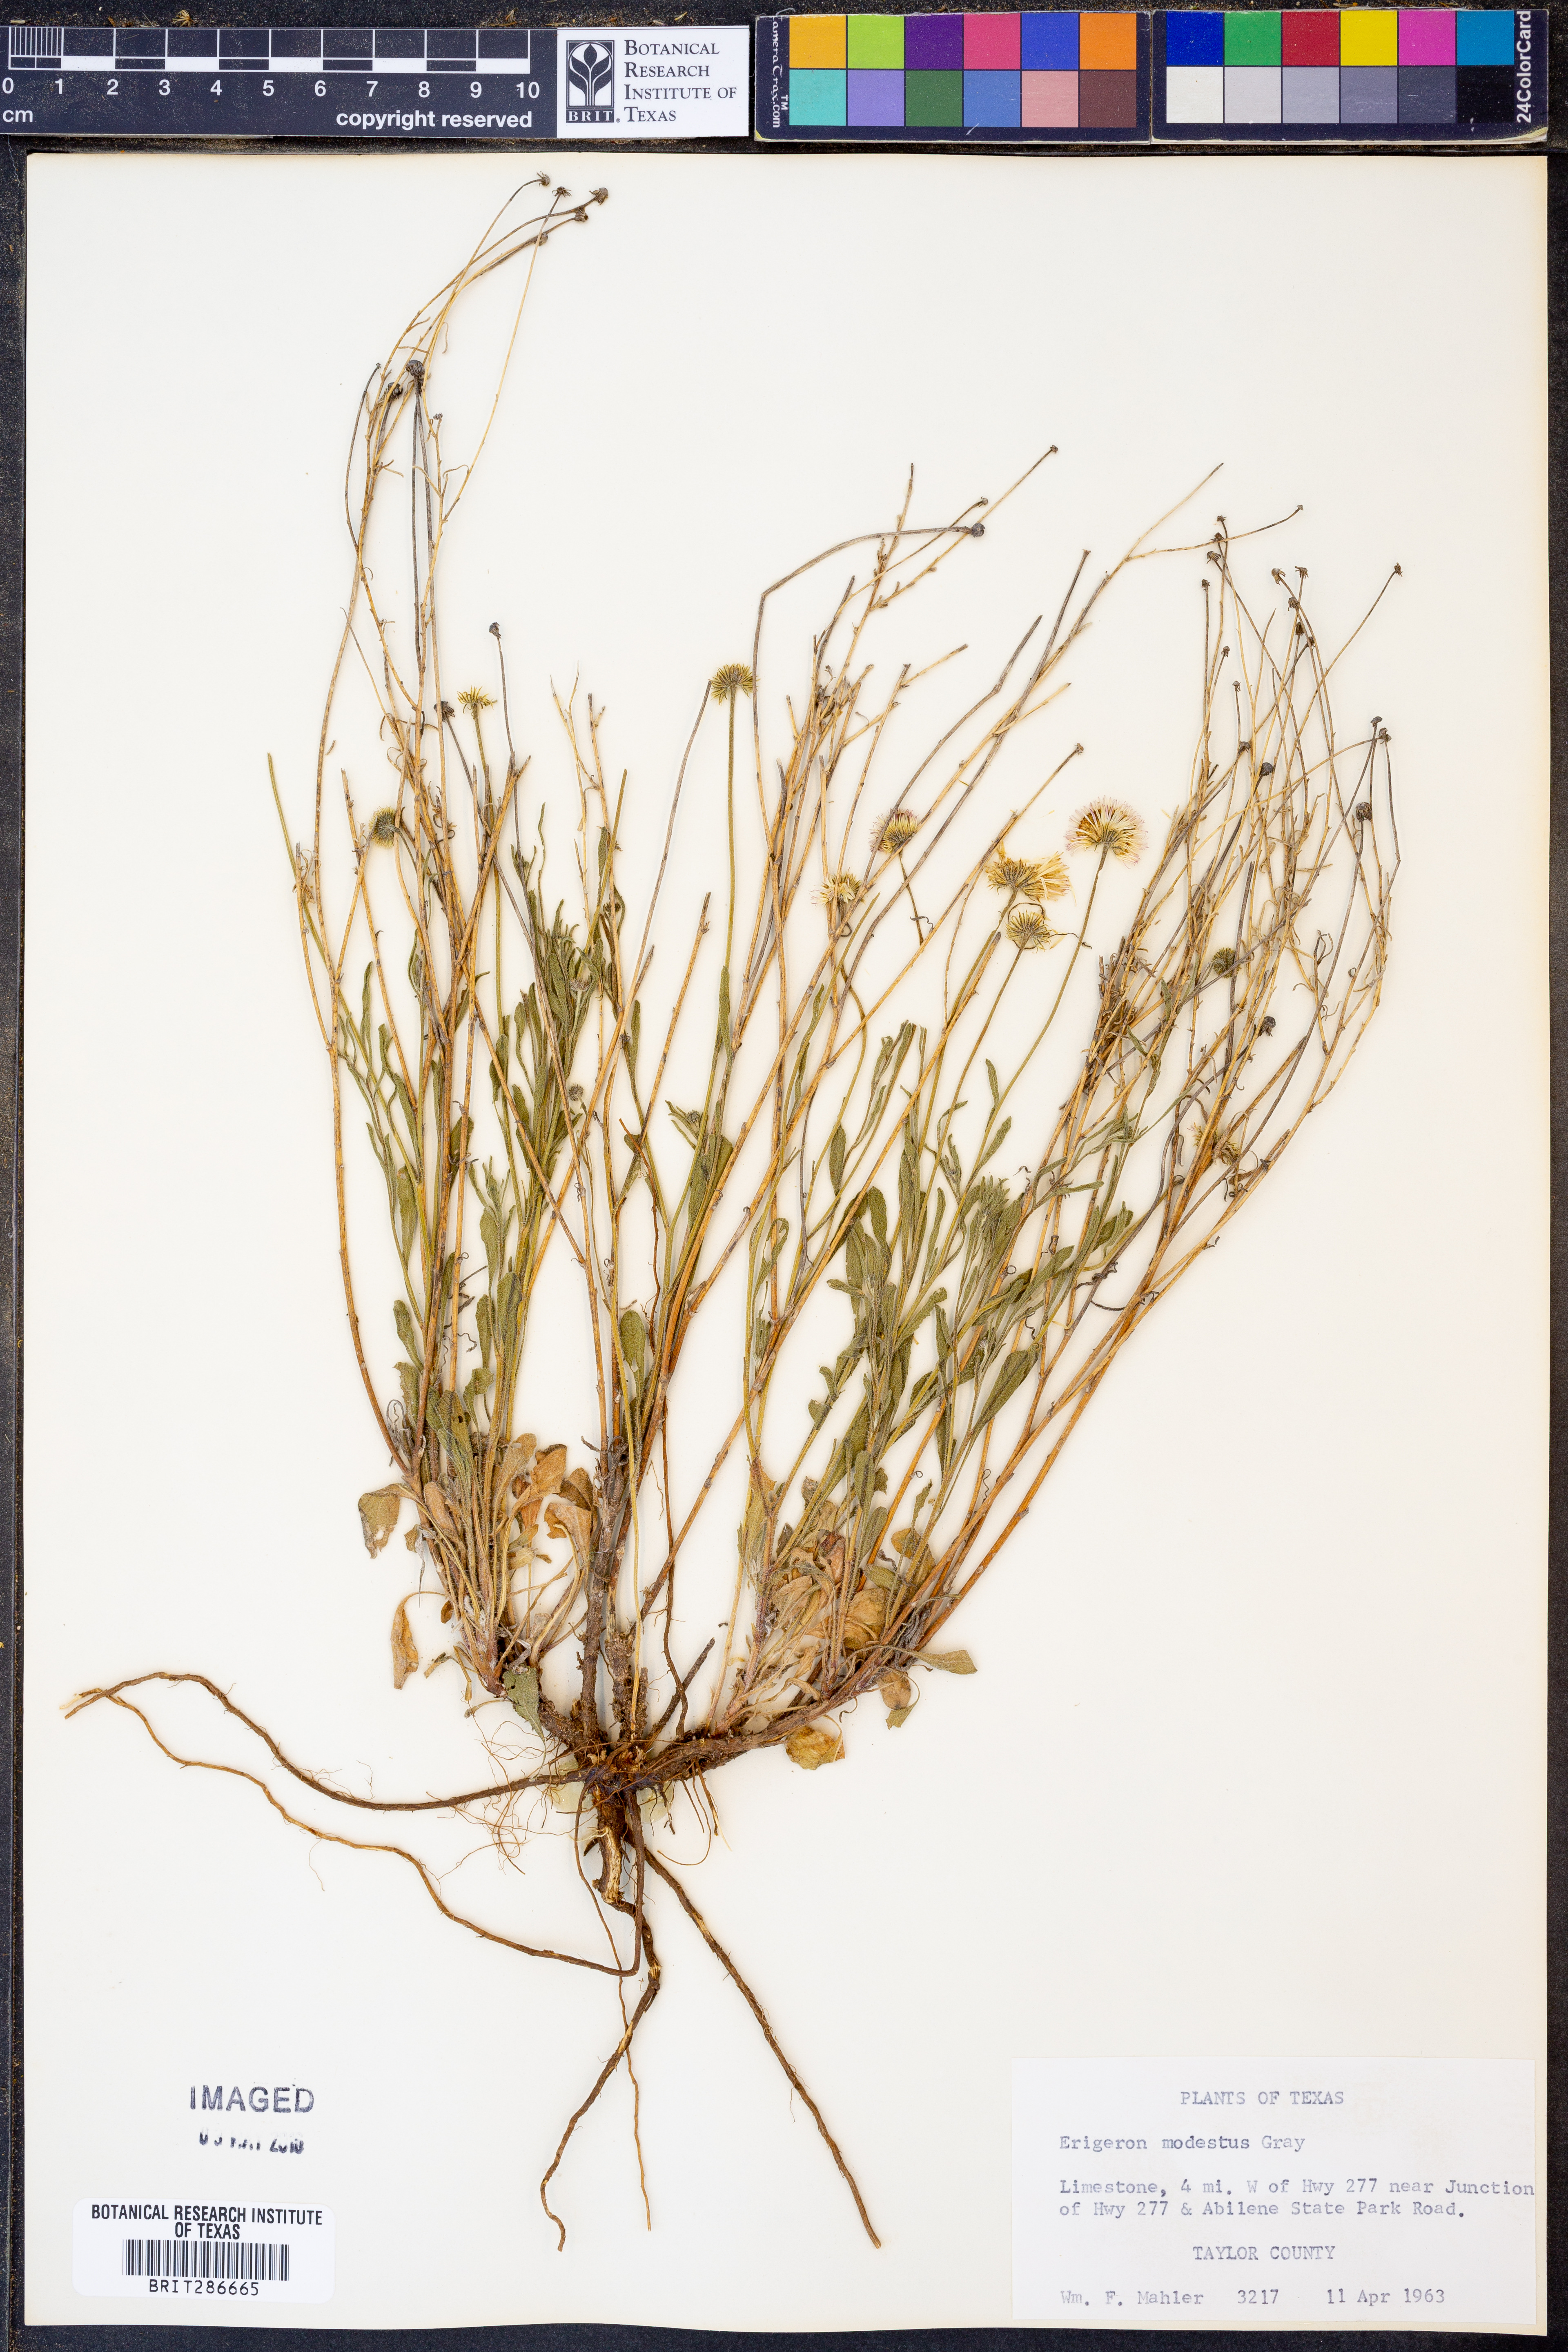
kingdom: Plantae
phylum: Tracheophyta
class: Magnoliopsida
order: Asterales
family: Asteraceae
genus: Erigeron
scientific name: Erigeron modestus
